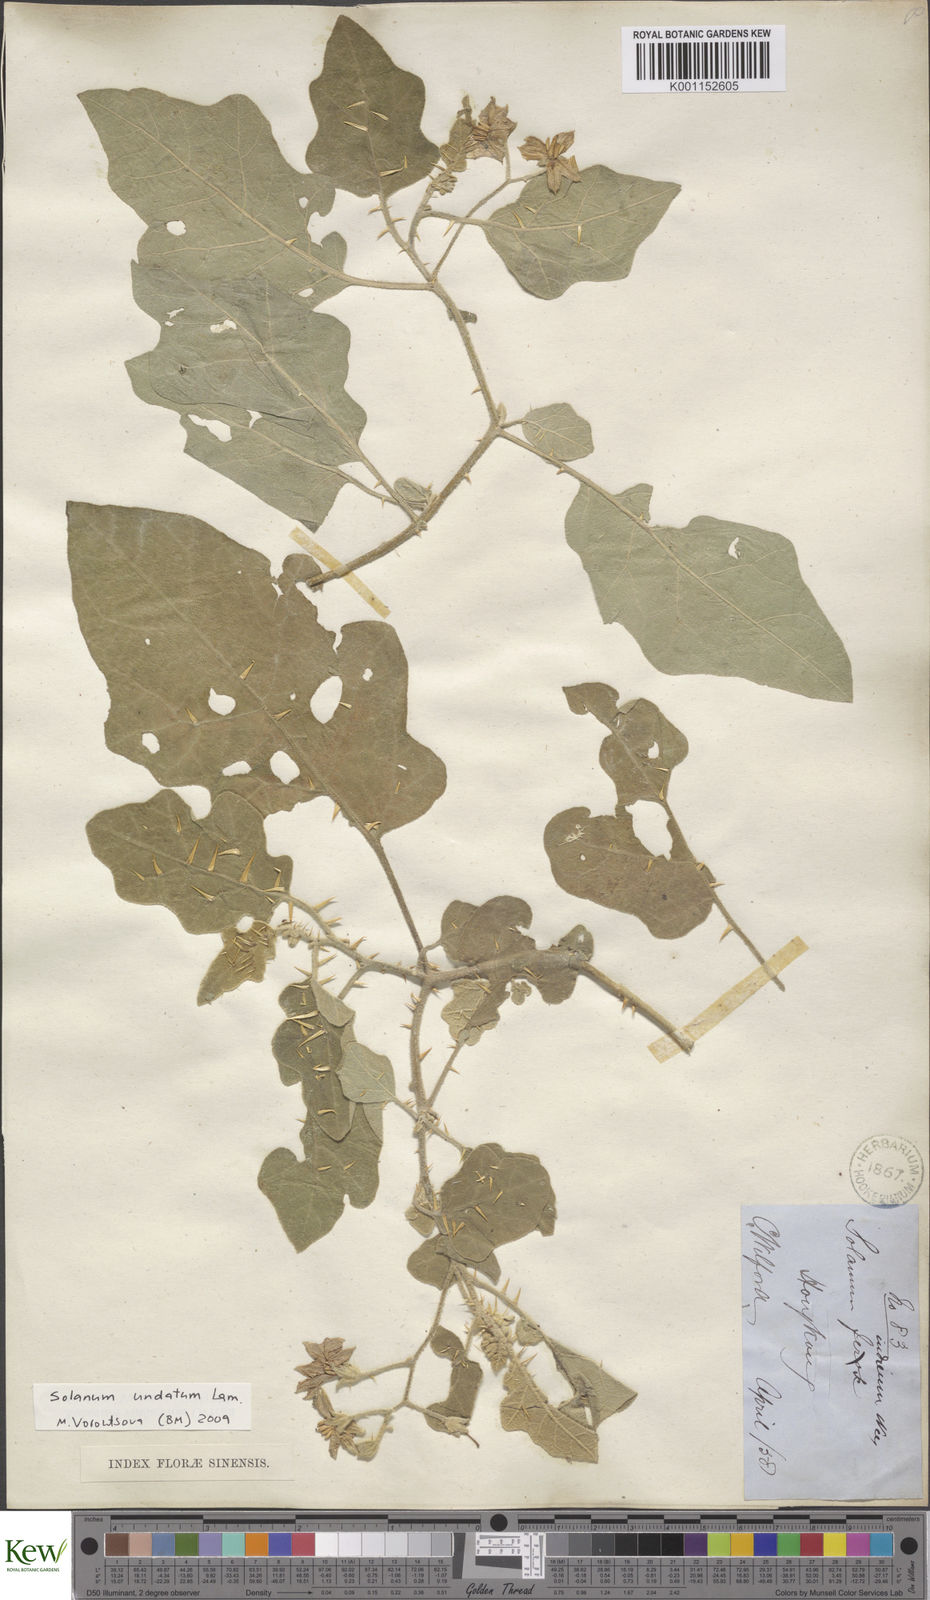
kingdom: Plantae
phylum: Tracheophyta
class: Magnoliopsida
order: Solanales
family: Solanaceae
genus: Solanum
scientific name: Solanum insanum
